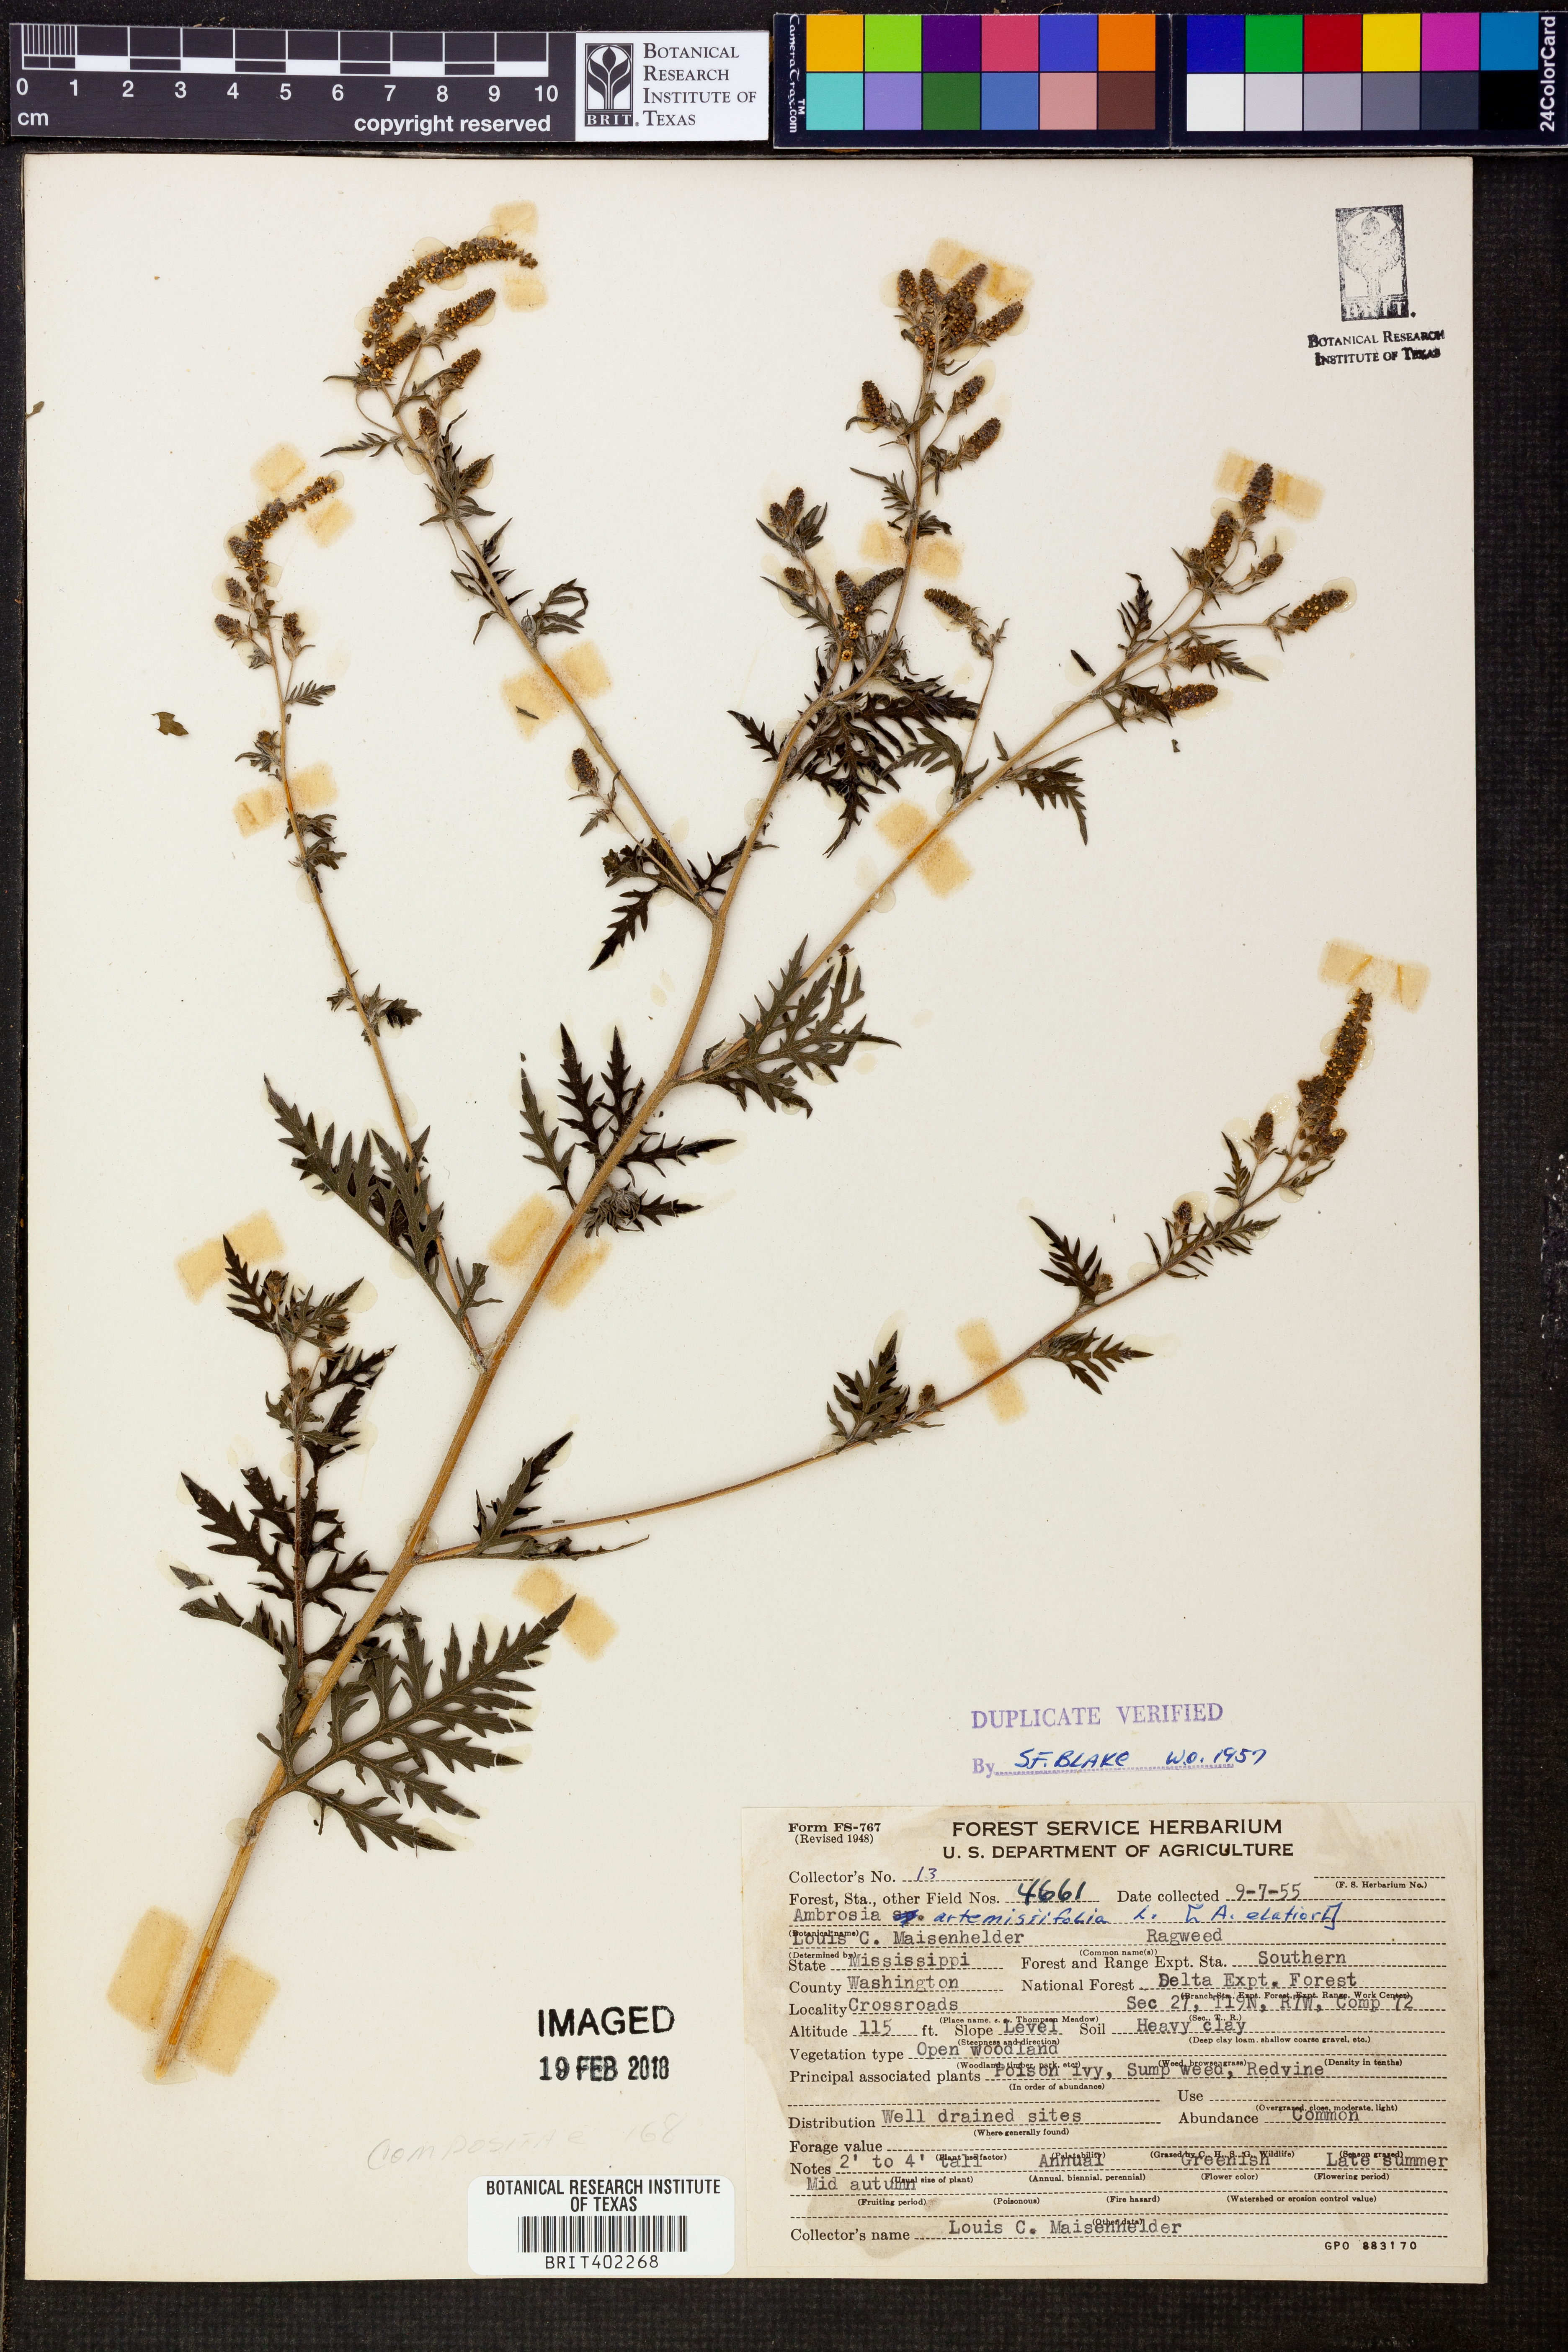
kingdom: Plantae
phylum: Tracheophyta
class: Magnoliopsida
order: Asterales
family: Asteraceae
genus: Ambrosia
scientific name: Ambrosia artemisiifolia
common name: Annual ragweed
